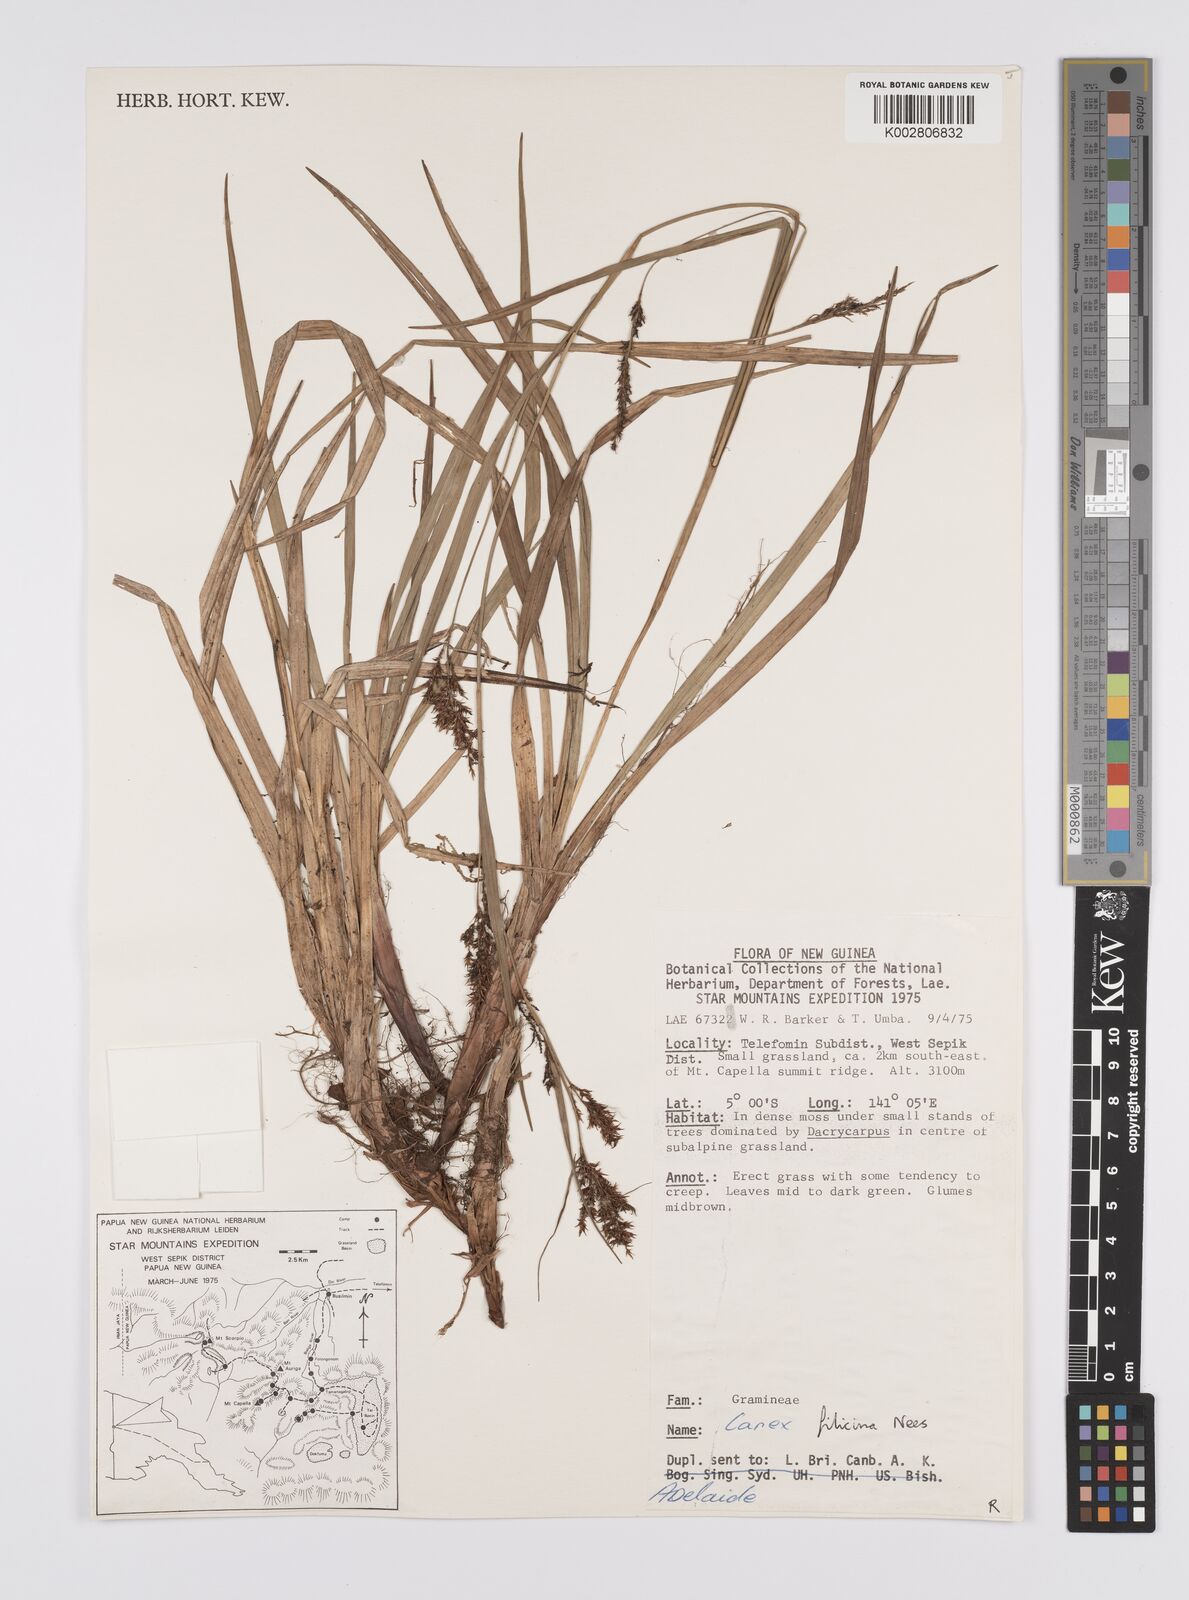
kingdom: Plantae
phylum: Tracheophyta
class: Liliopsida
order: Poales
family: Cyperaceae
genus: Carex
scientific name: Carex filicina
